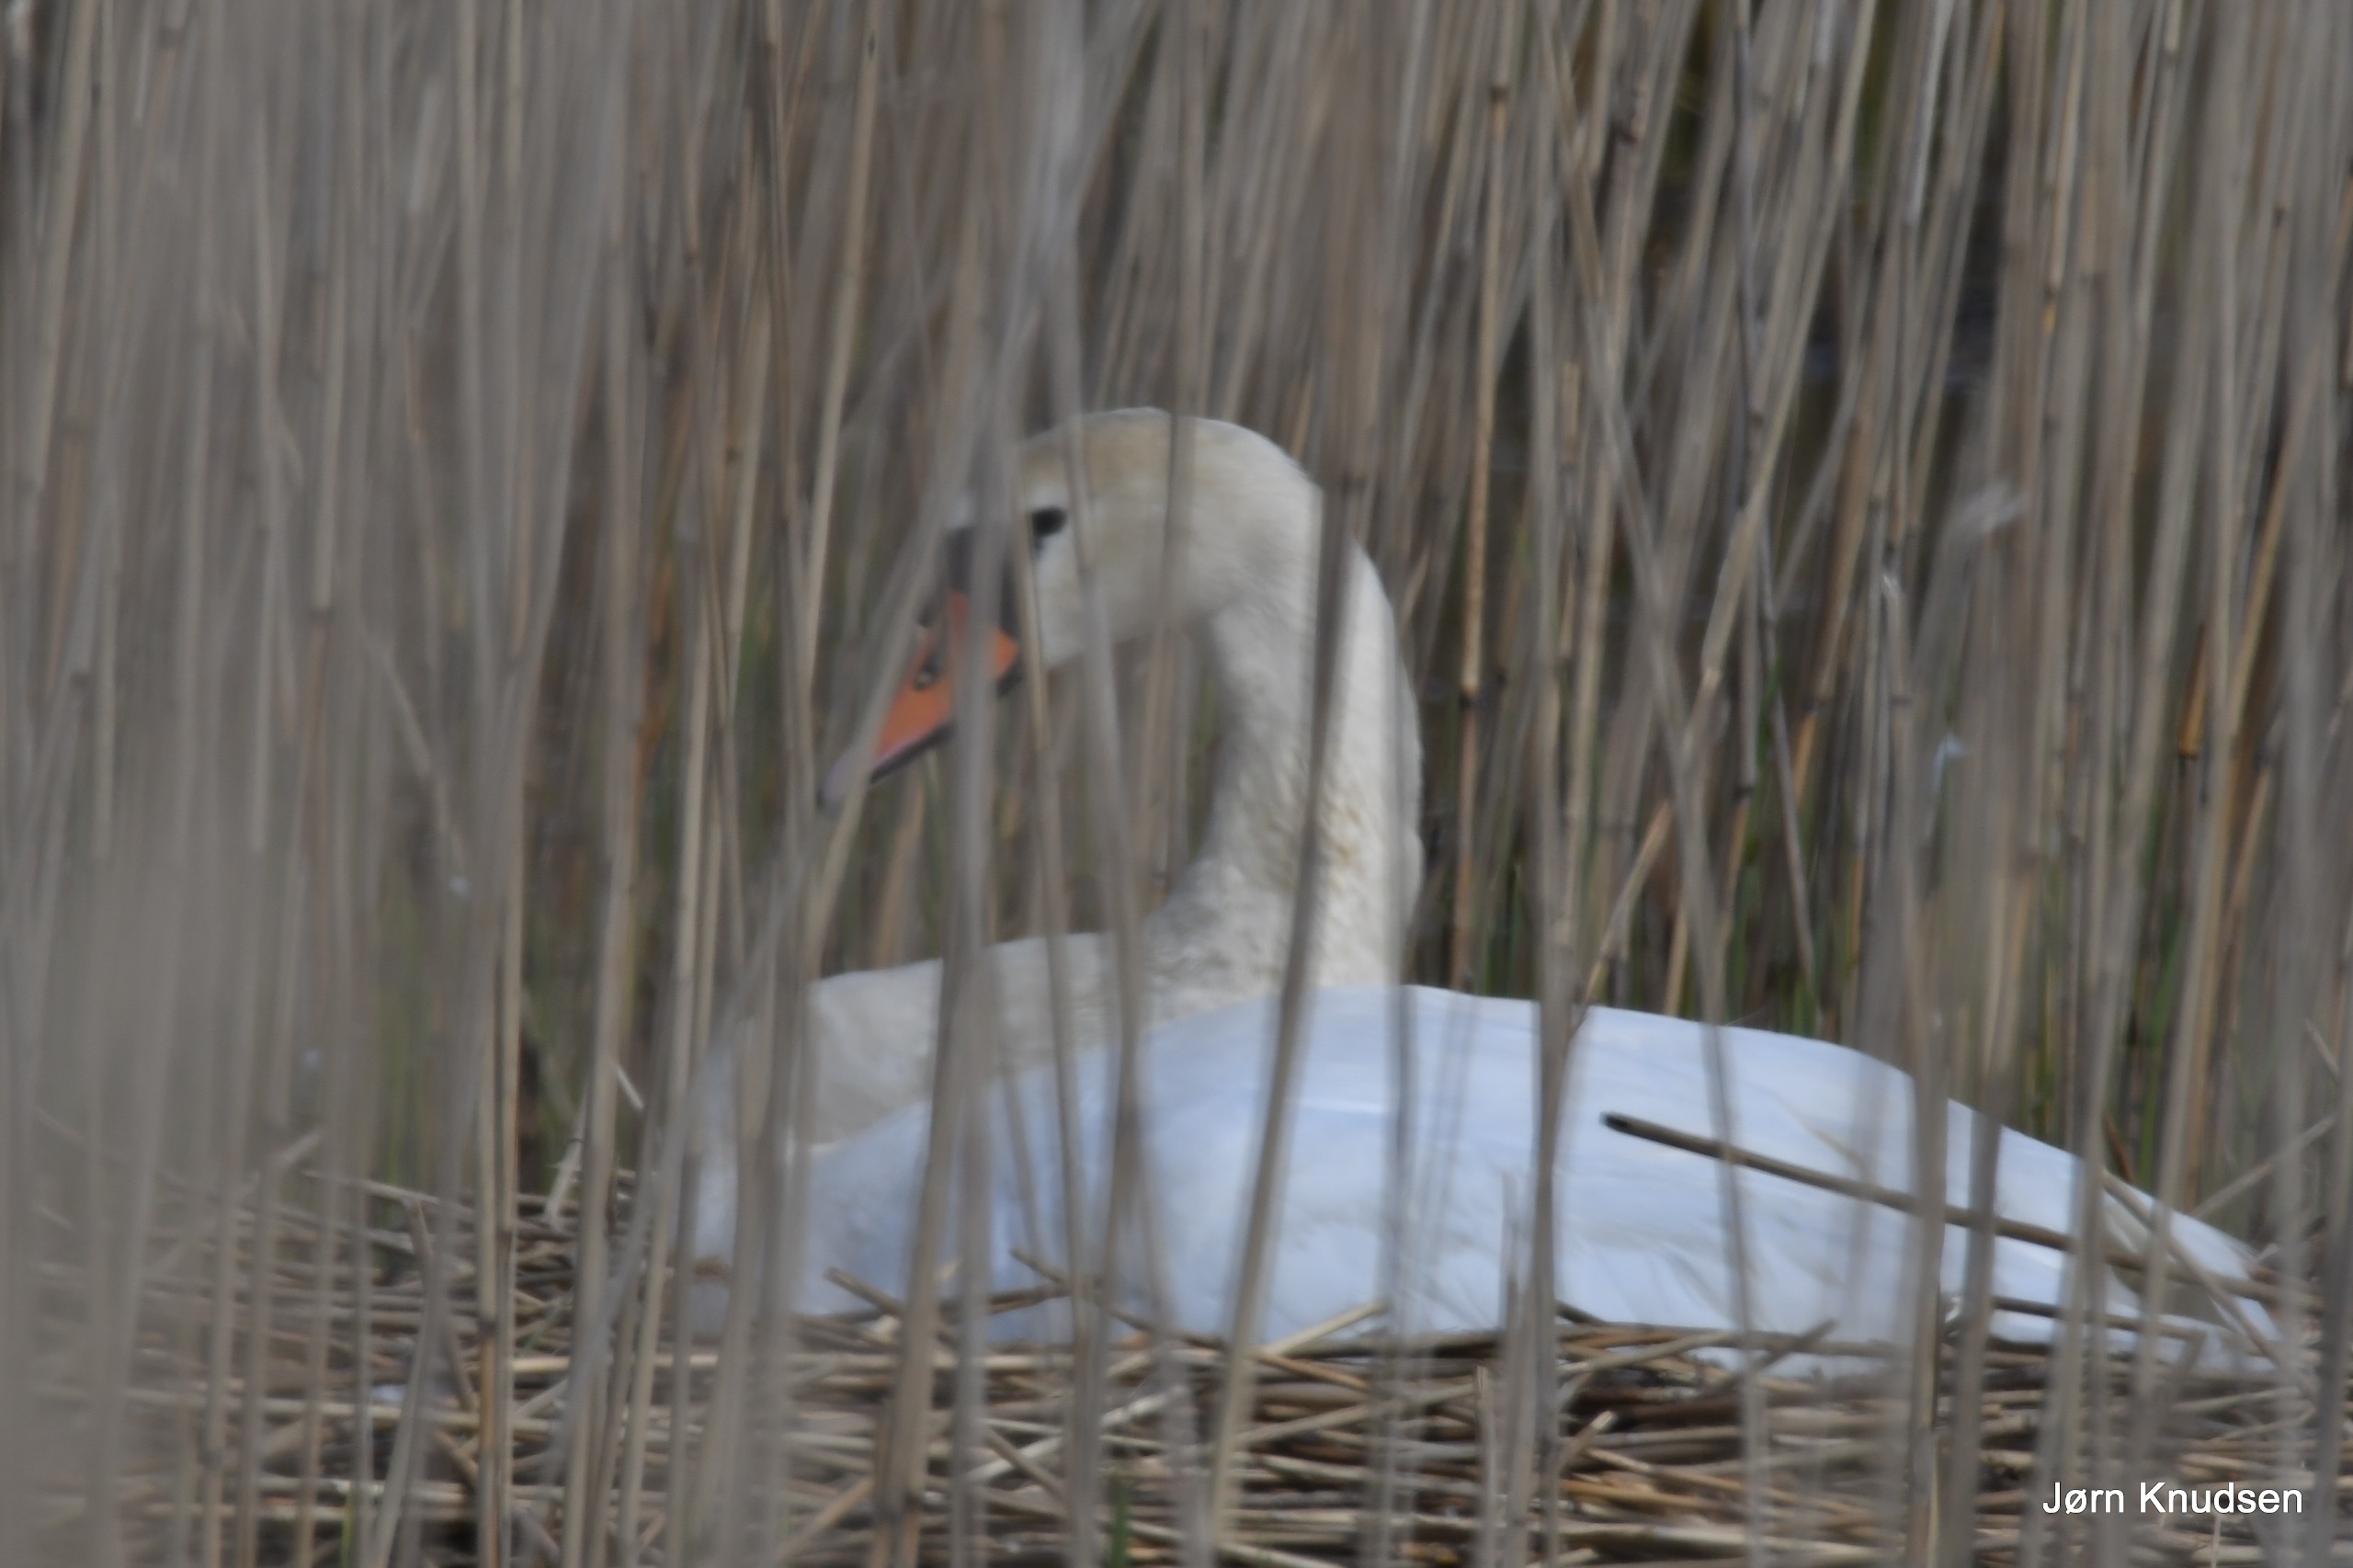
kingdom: Animalia
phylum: Chordata
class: Aves
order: Anseriformes
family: Anatidae
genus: Cygnus
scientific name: Cygnus olor
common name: Knopsvane
